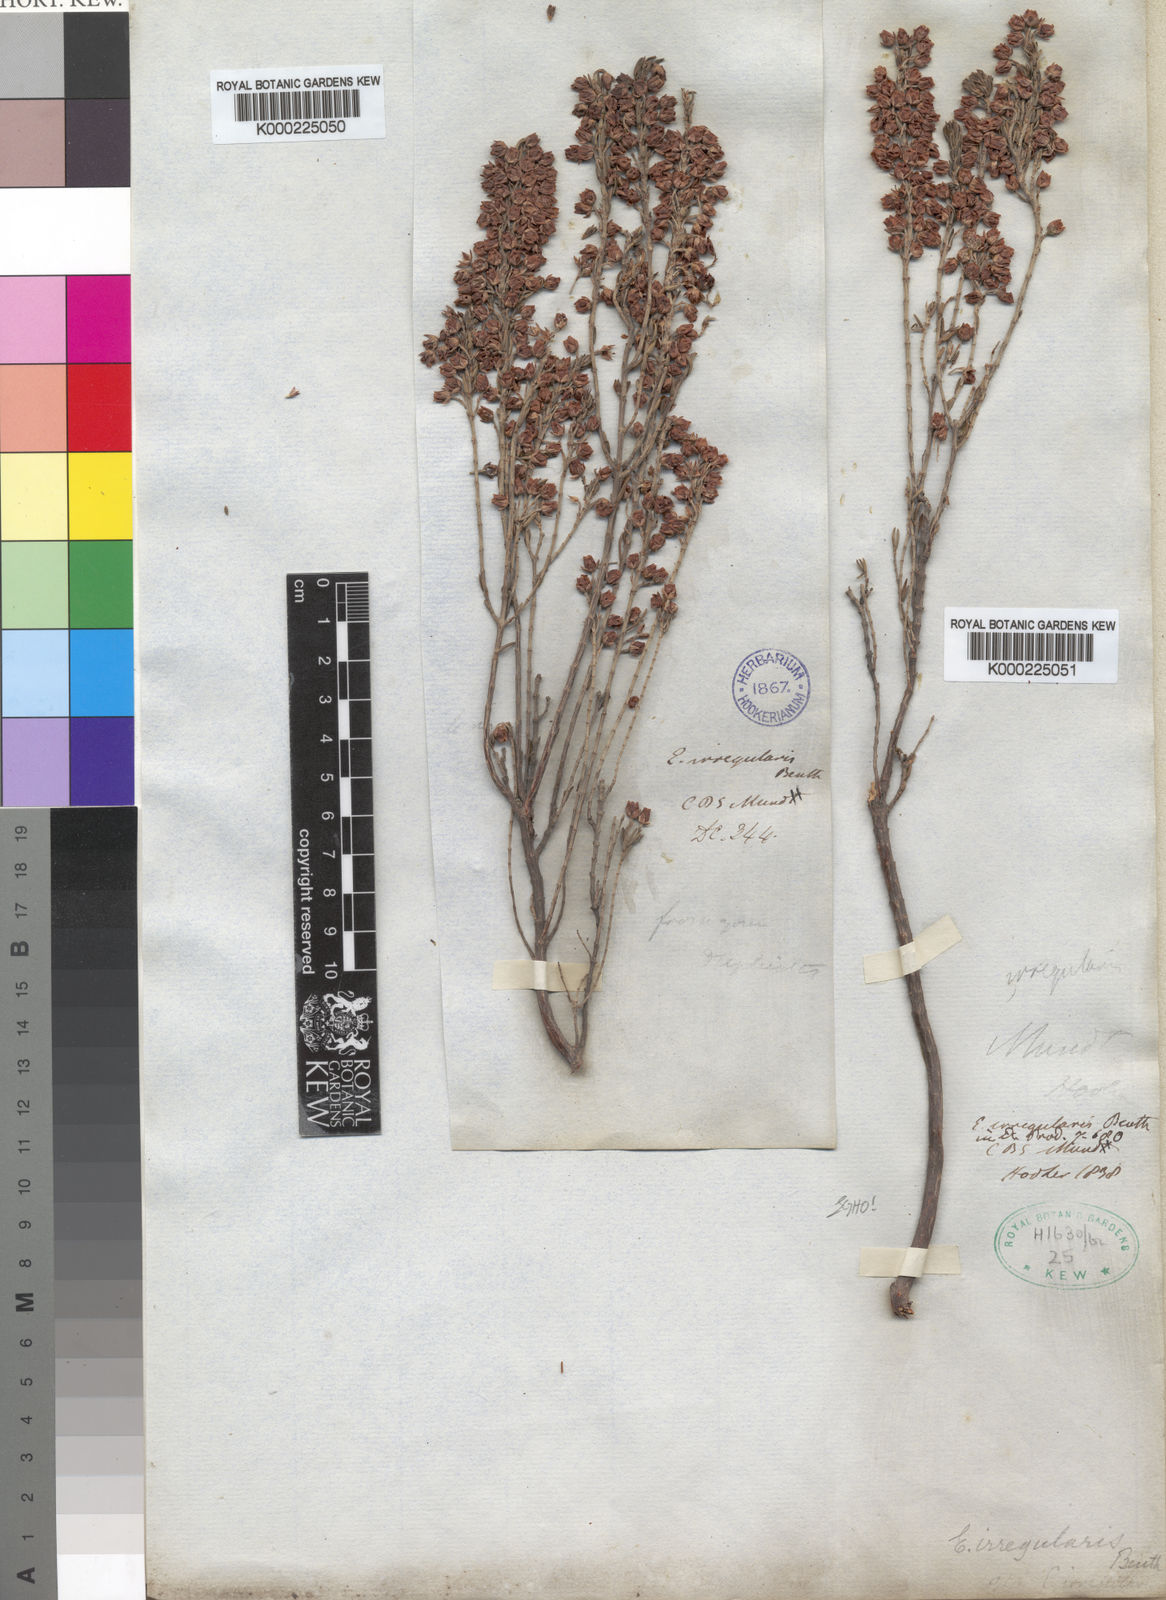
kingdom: Plantae
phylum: Tracheophyta
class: Magnoliopsida
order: Ericales
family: Ericaceae
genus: Erica
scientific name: Erica irregularis
